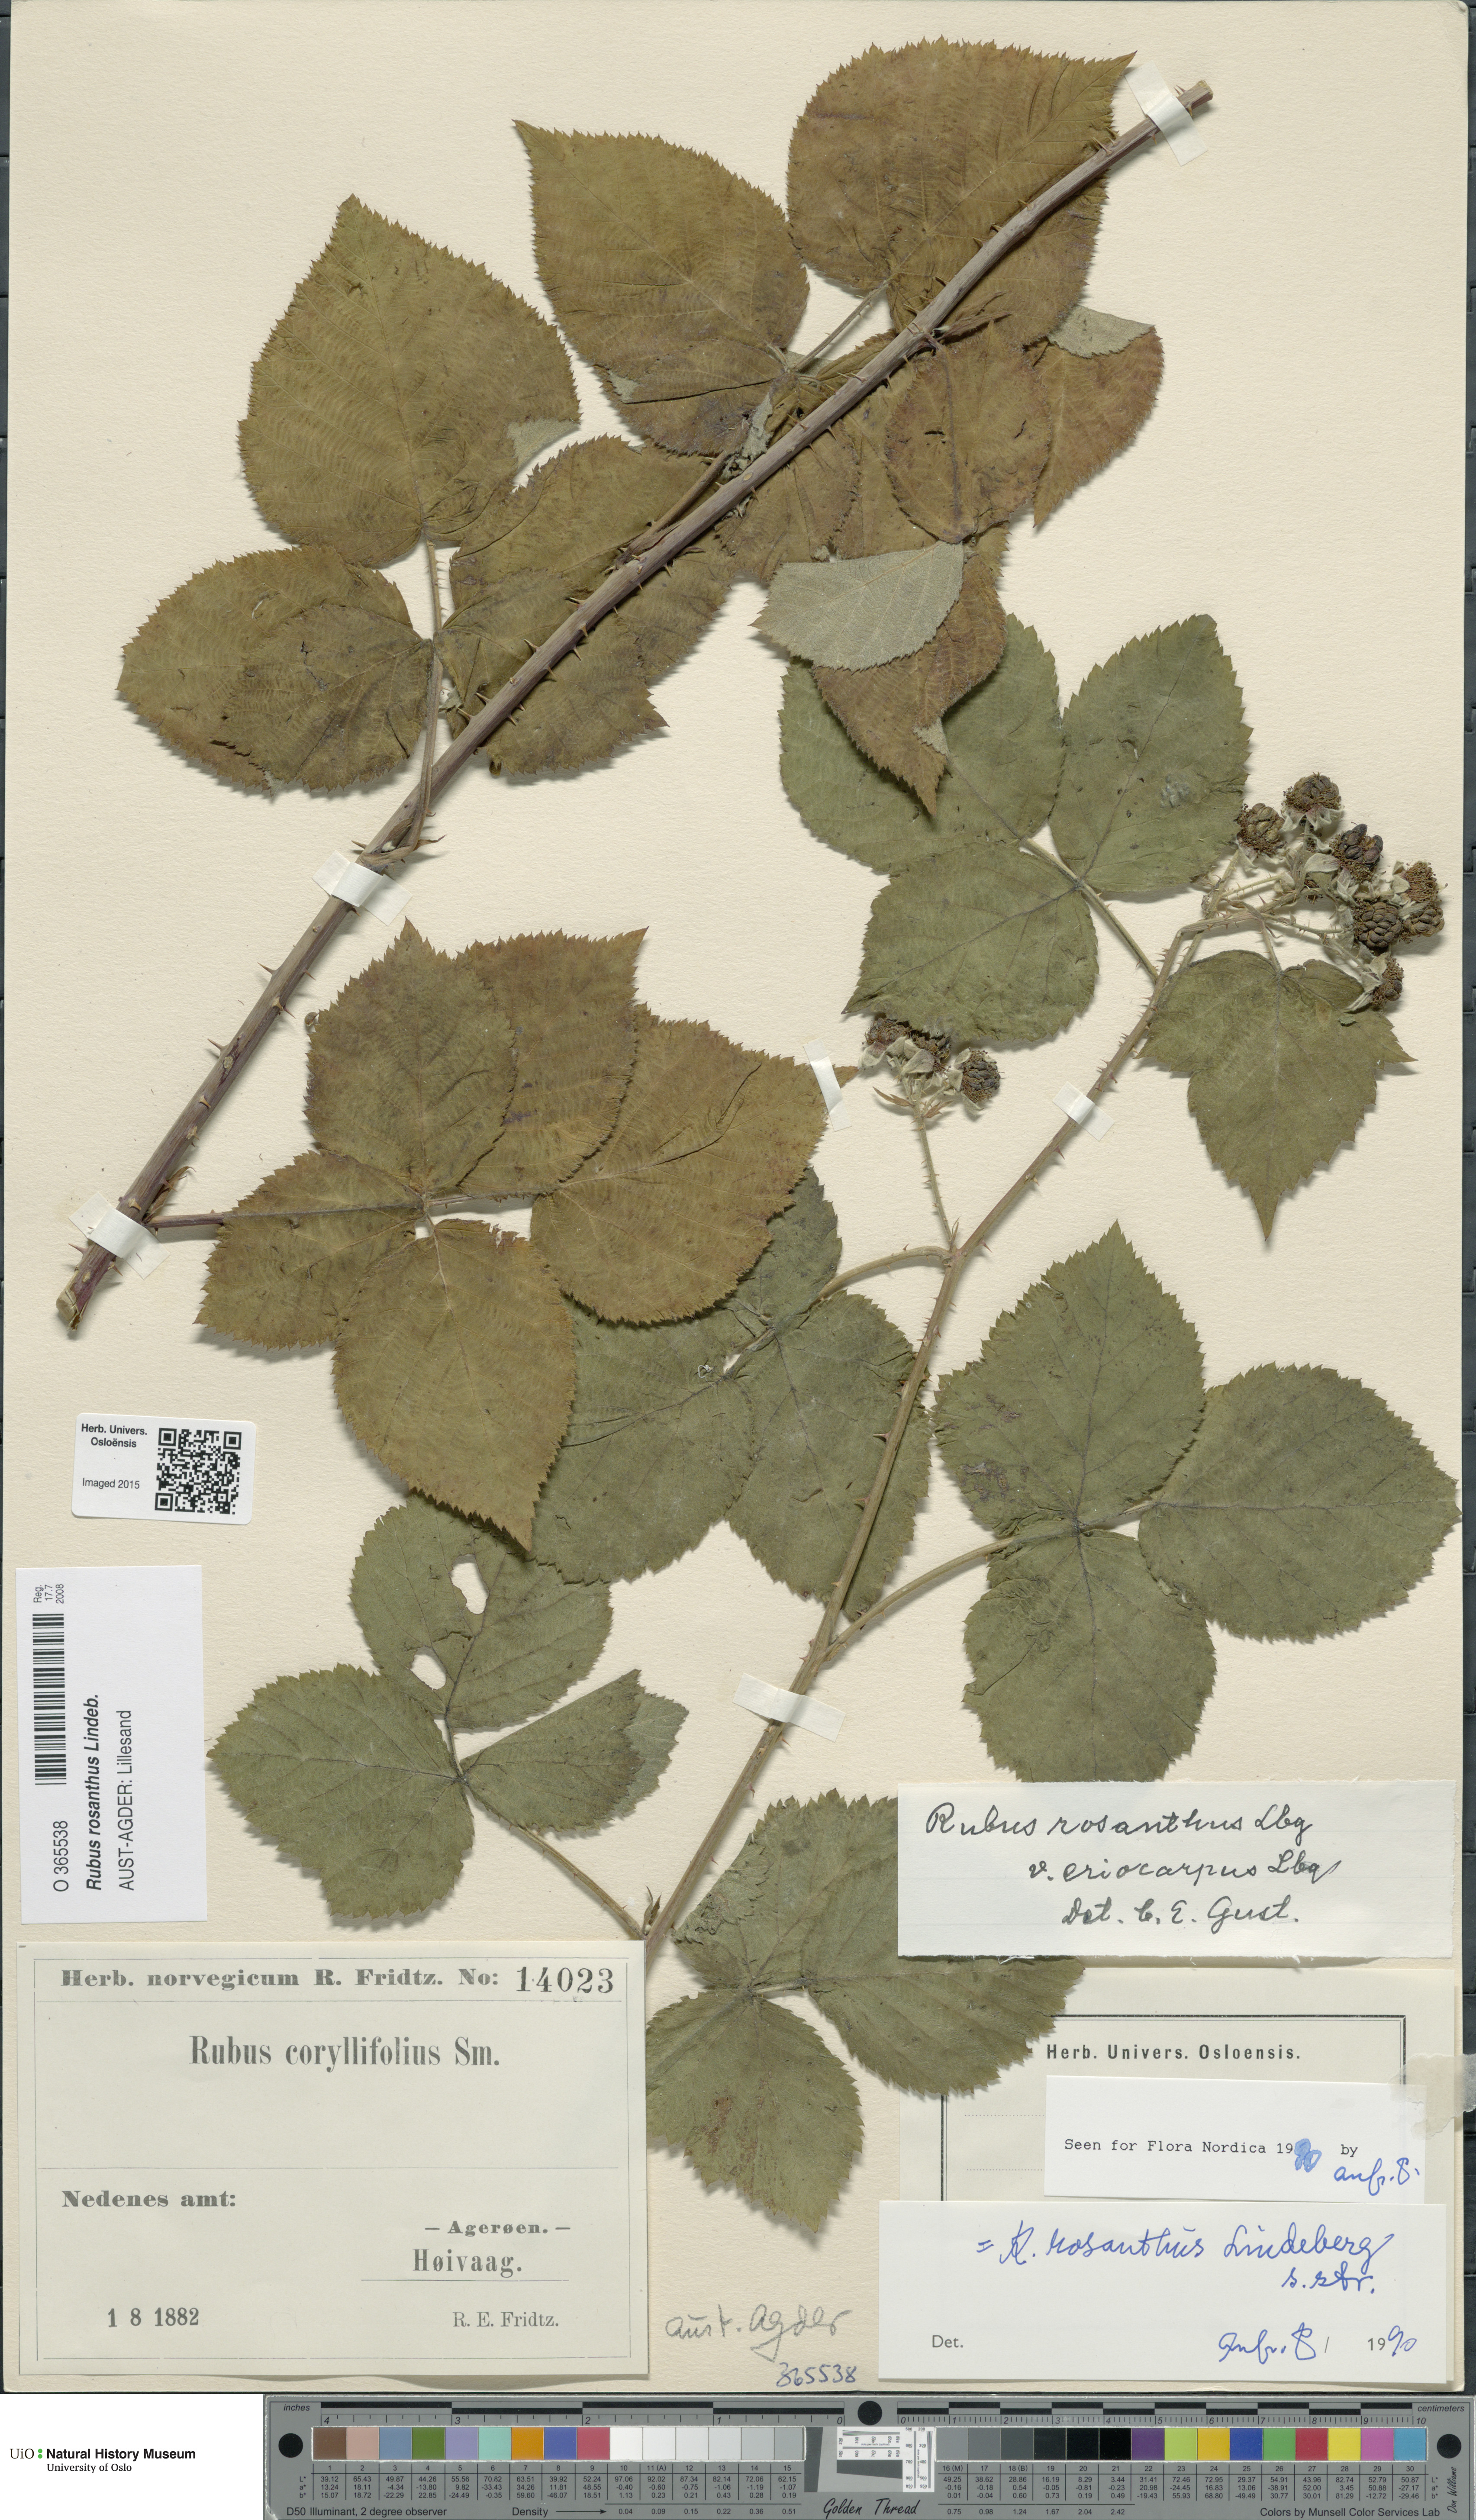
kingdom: Plantae
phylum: Tracheophyta
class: Magnoliopsida
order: Rosales
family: Rosaceae
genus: Rubus
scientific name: Rubus rosanthus
